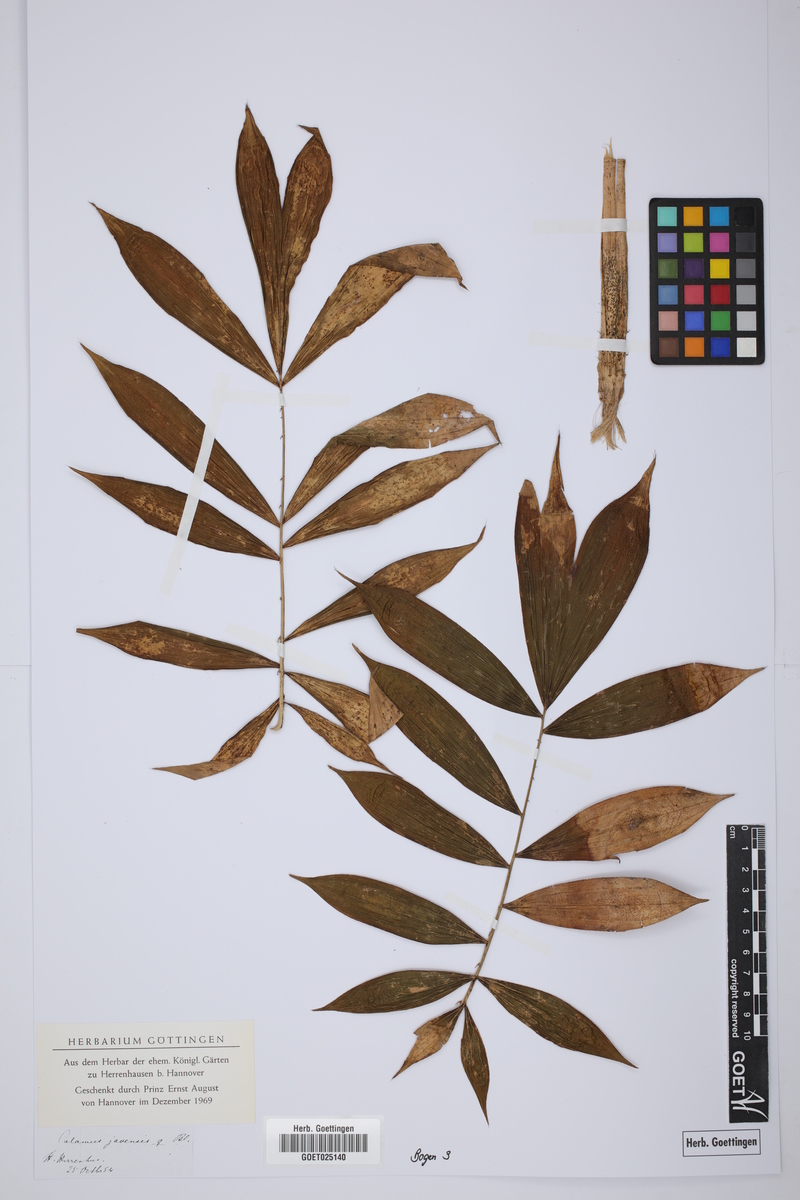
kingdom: Plantae
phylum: Tracheophyta
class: Liliopsida
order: Arecales
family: Arecaceae
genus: Calamus
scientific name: Calamus javensis
